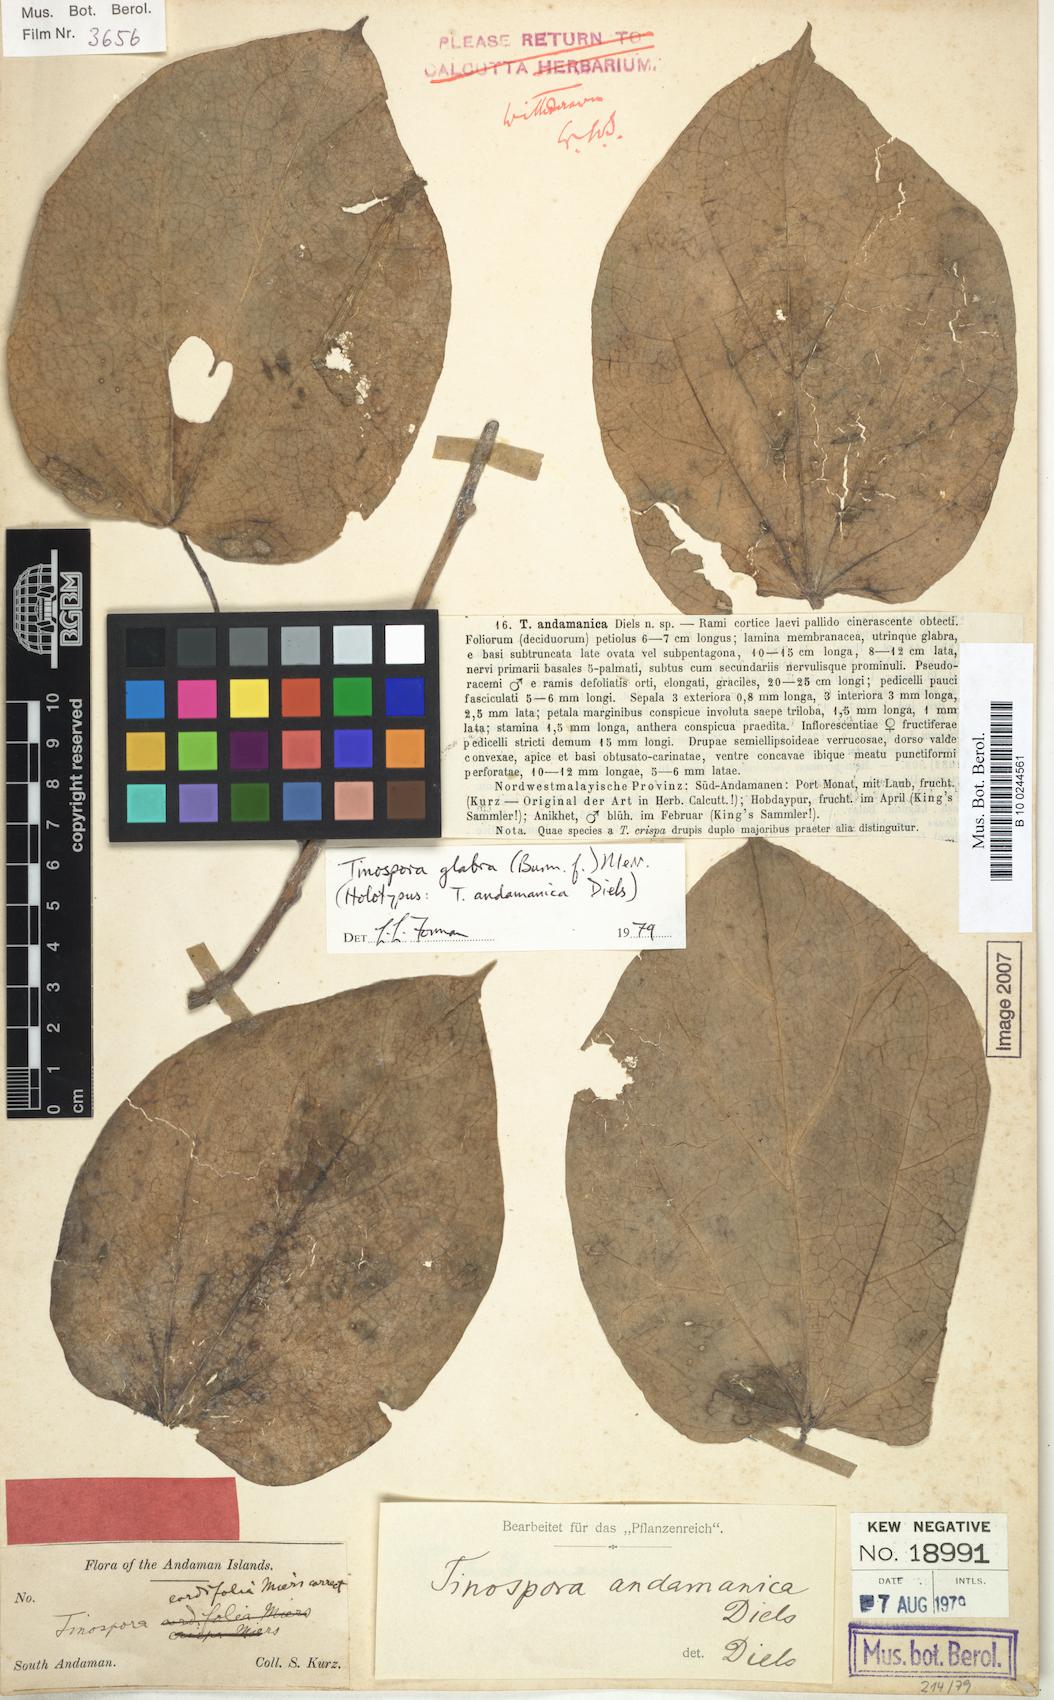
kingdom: Plantae
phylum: Tracheophyta
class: Magnoliopsida
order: Ranunculales
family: Menispermaceae
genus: Tinospora
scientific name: Tinospora glabra
